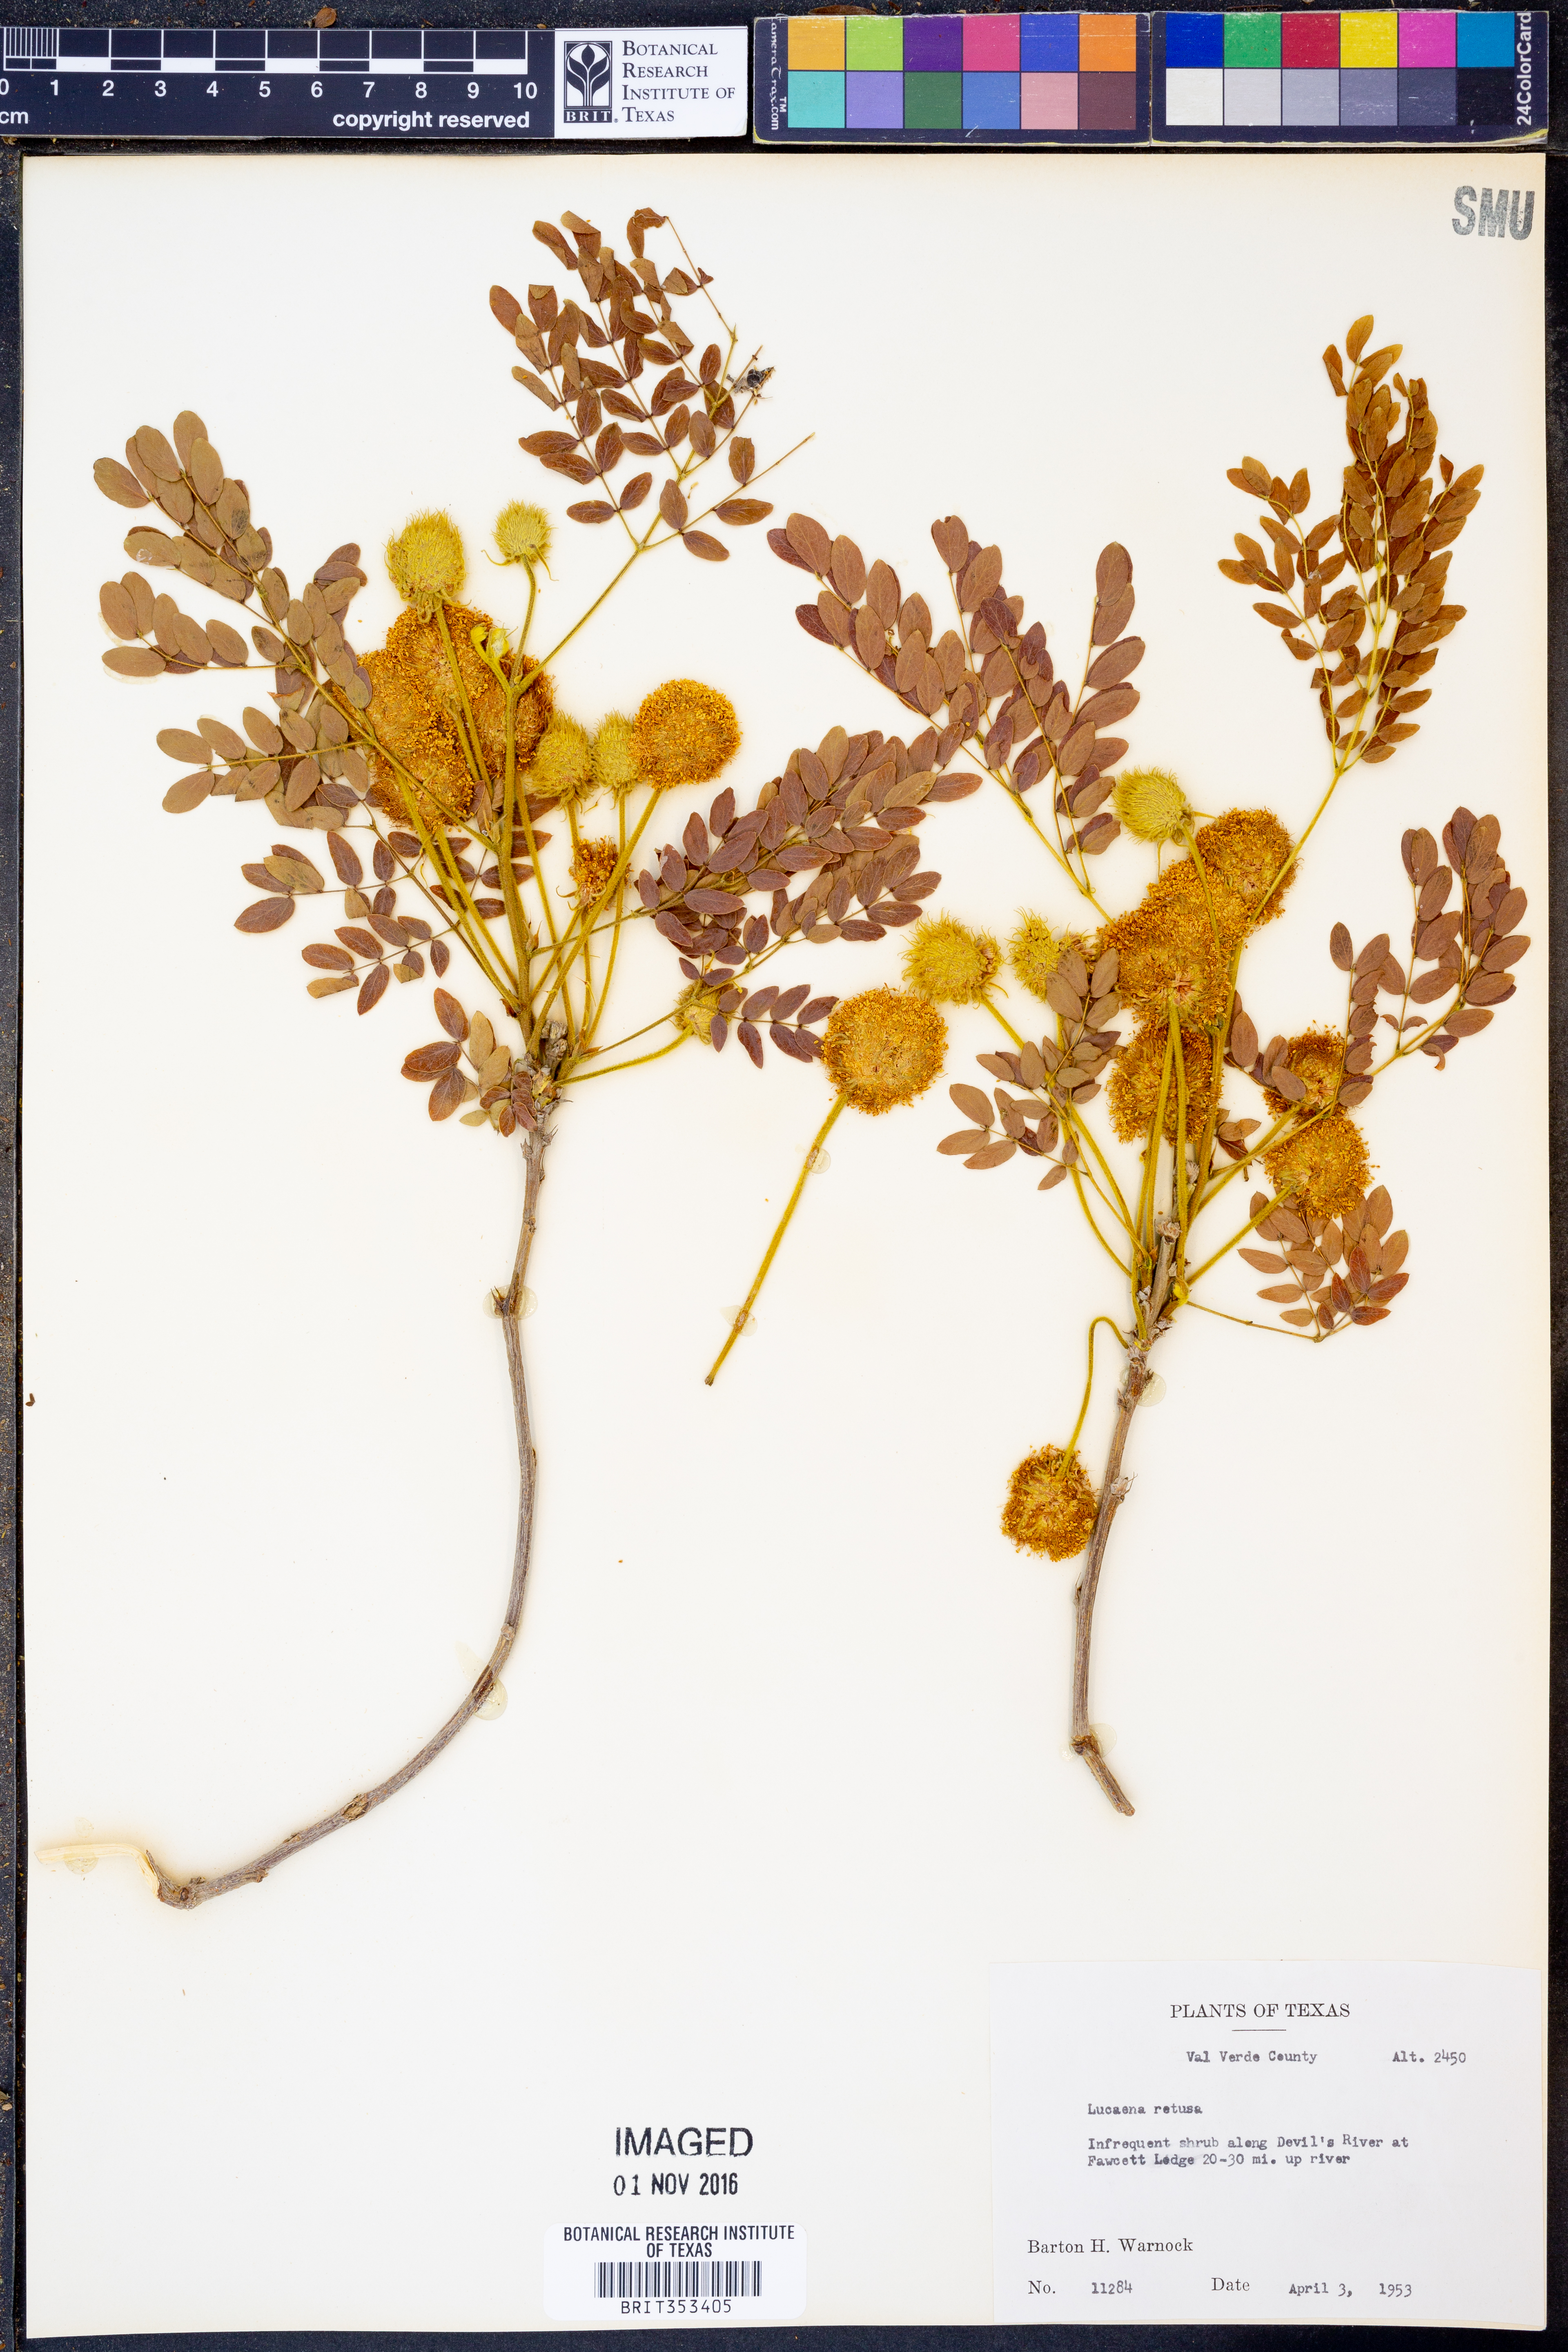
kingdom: Plantae
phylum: Tracheophyta
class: Magnoliopsida
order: Fabales
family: Fabaceae
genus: Leucaena
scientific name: Leucaena retusa
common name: Littleleaf leadtree
